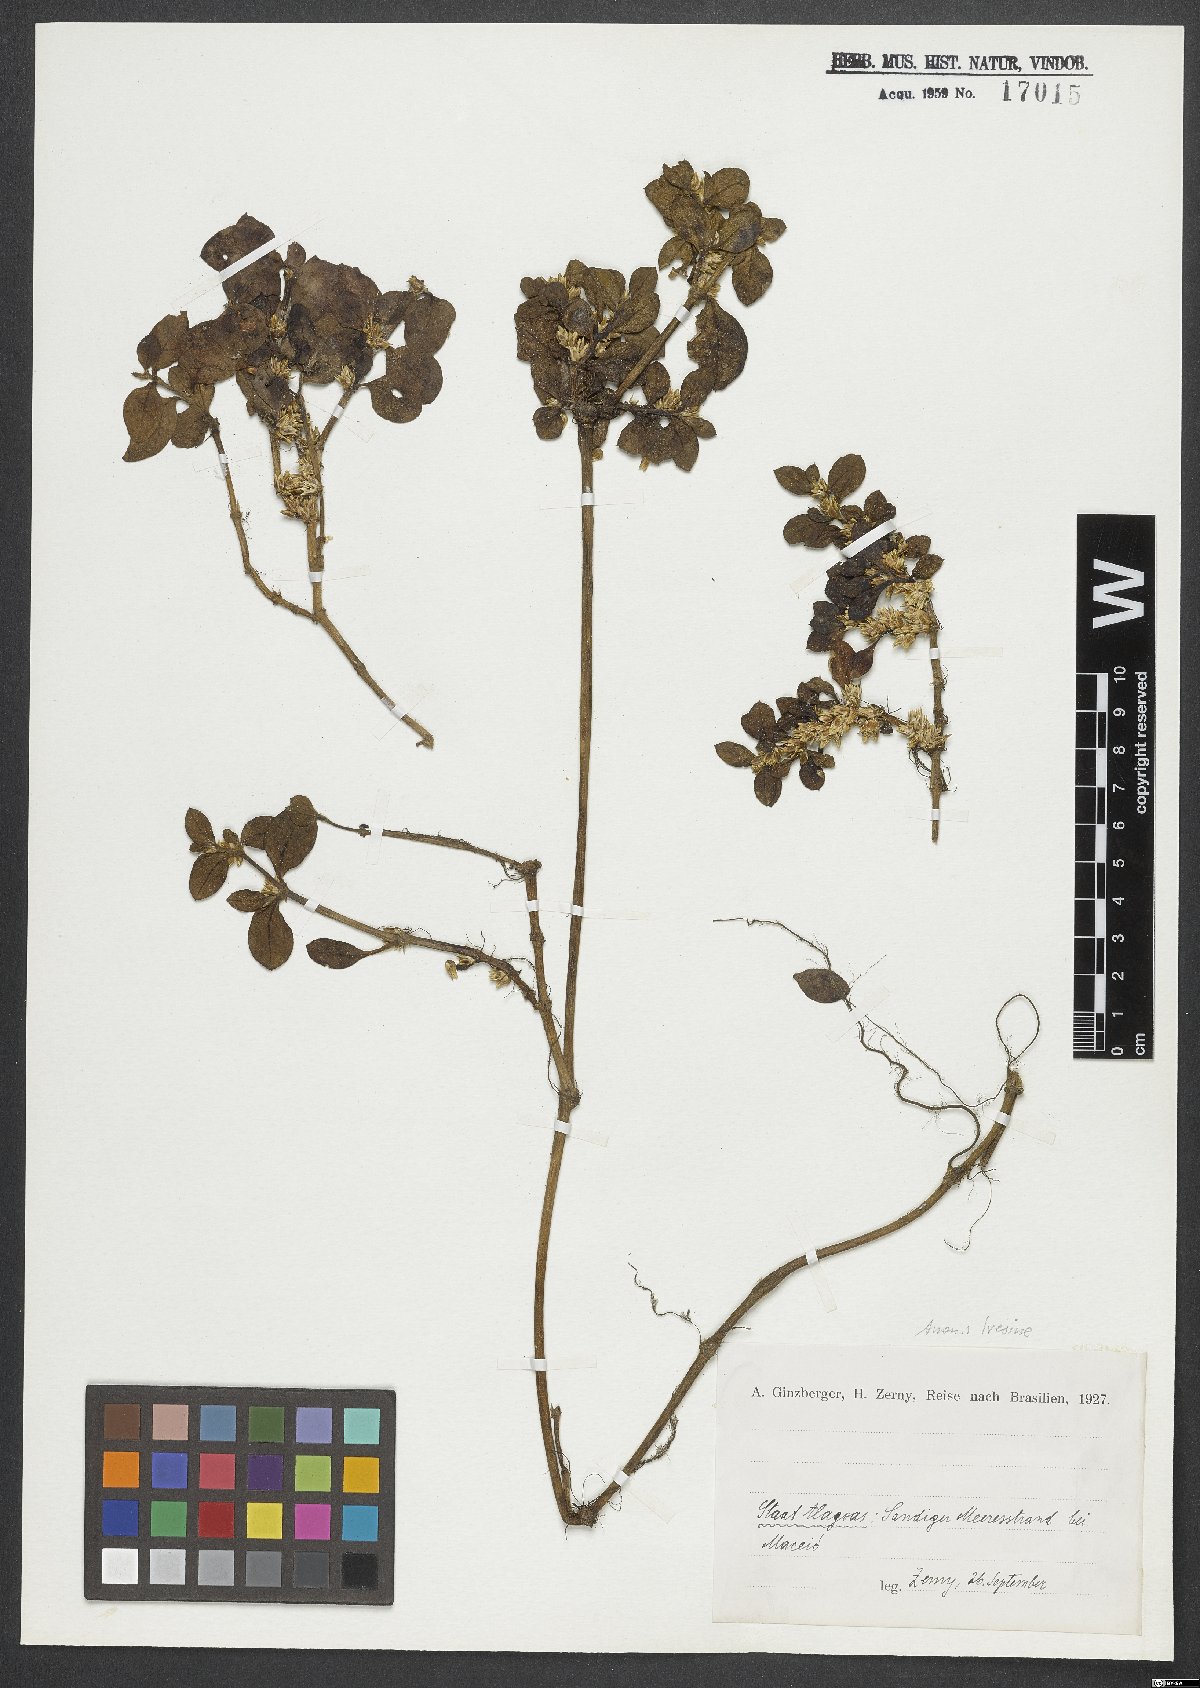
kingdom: Plantae
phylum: Tracheophyta
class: Magnoliopsida
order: Caryophyllales
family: Amaranthaceae
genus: Iresine
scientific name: Iresine
